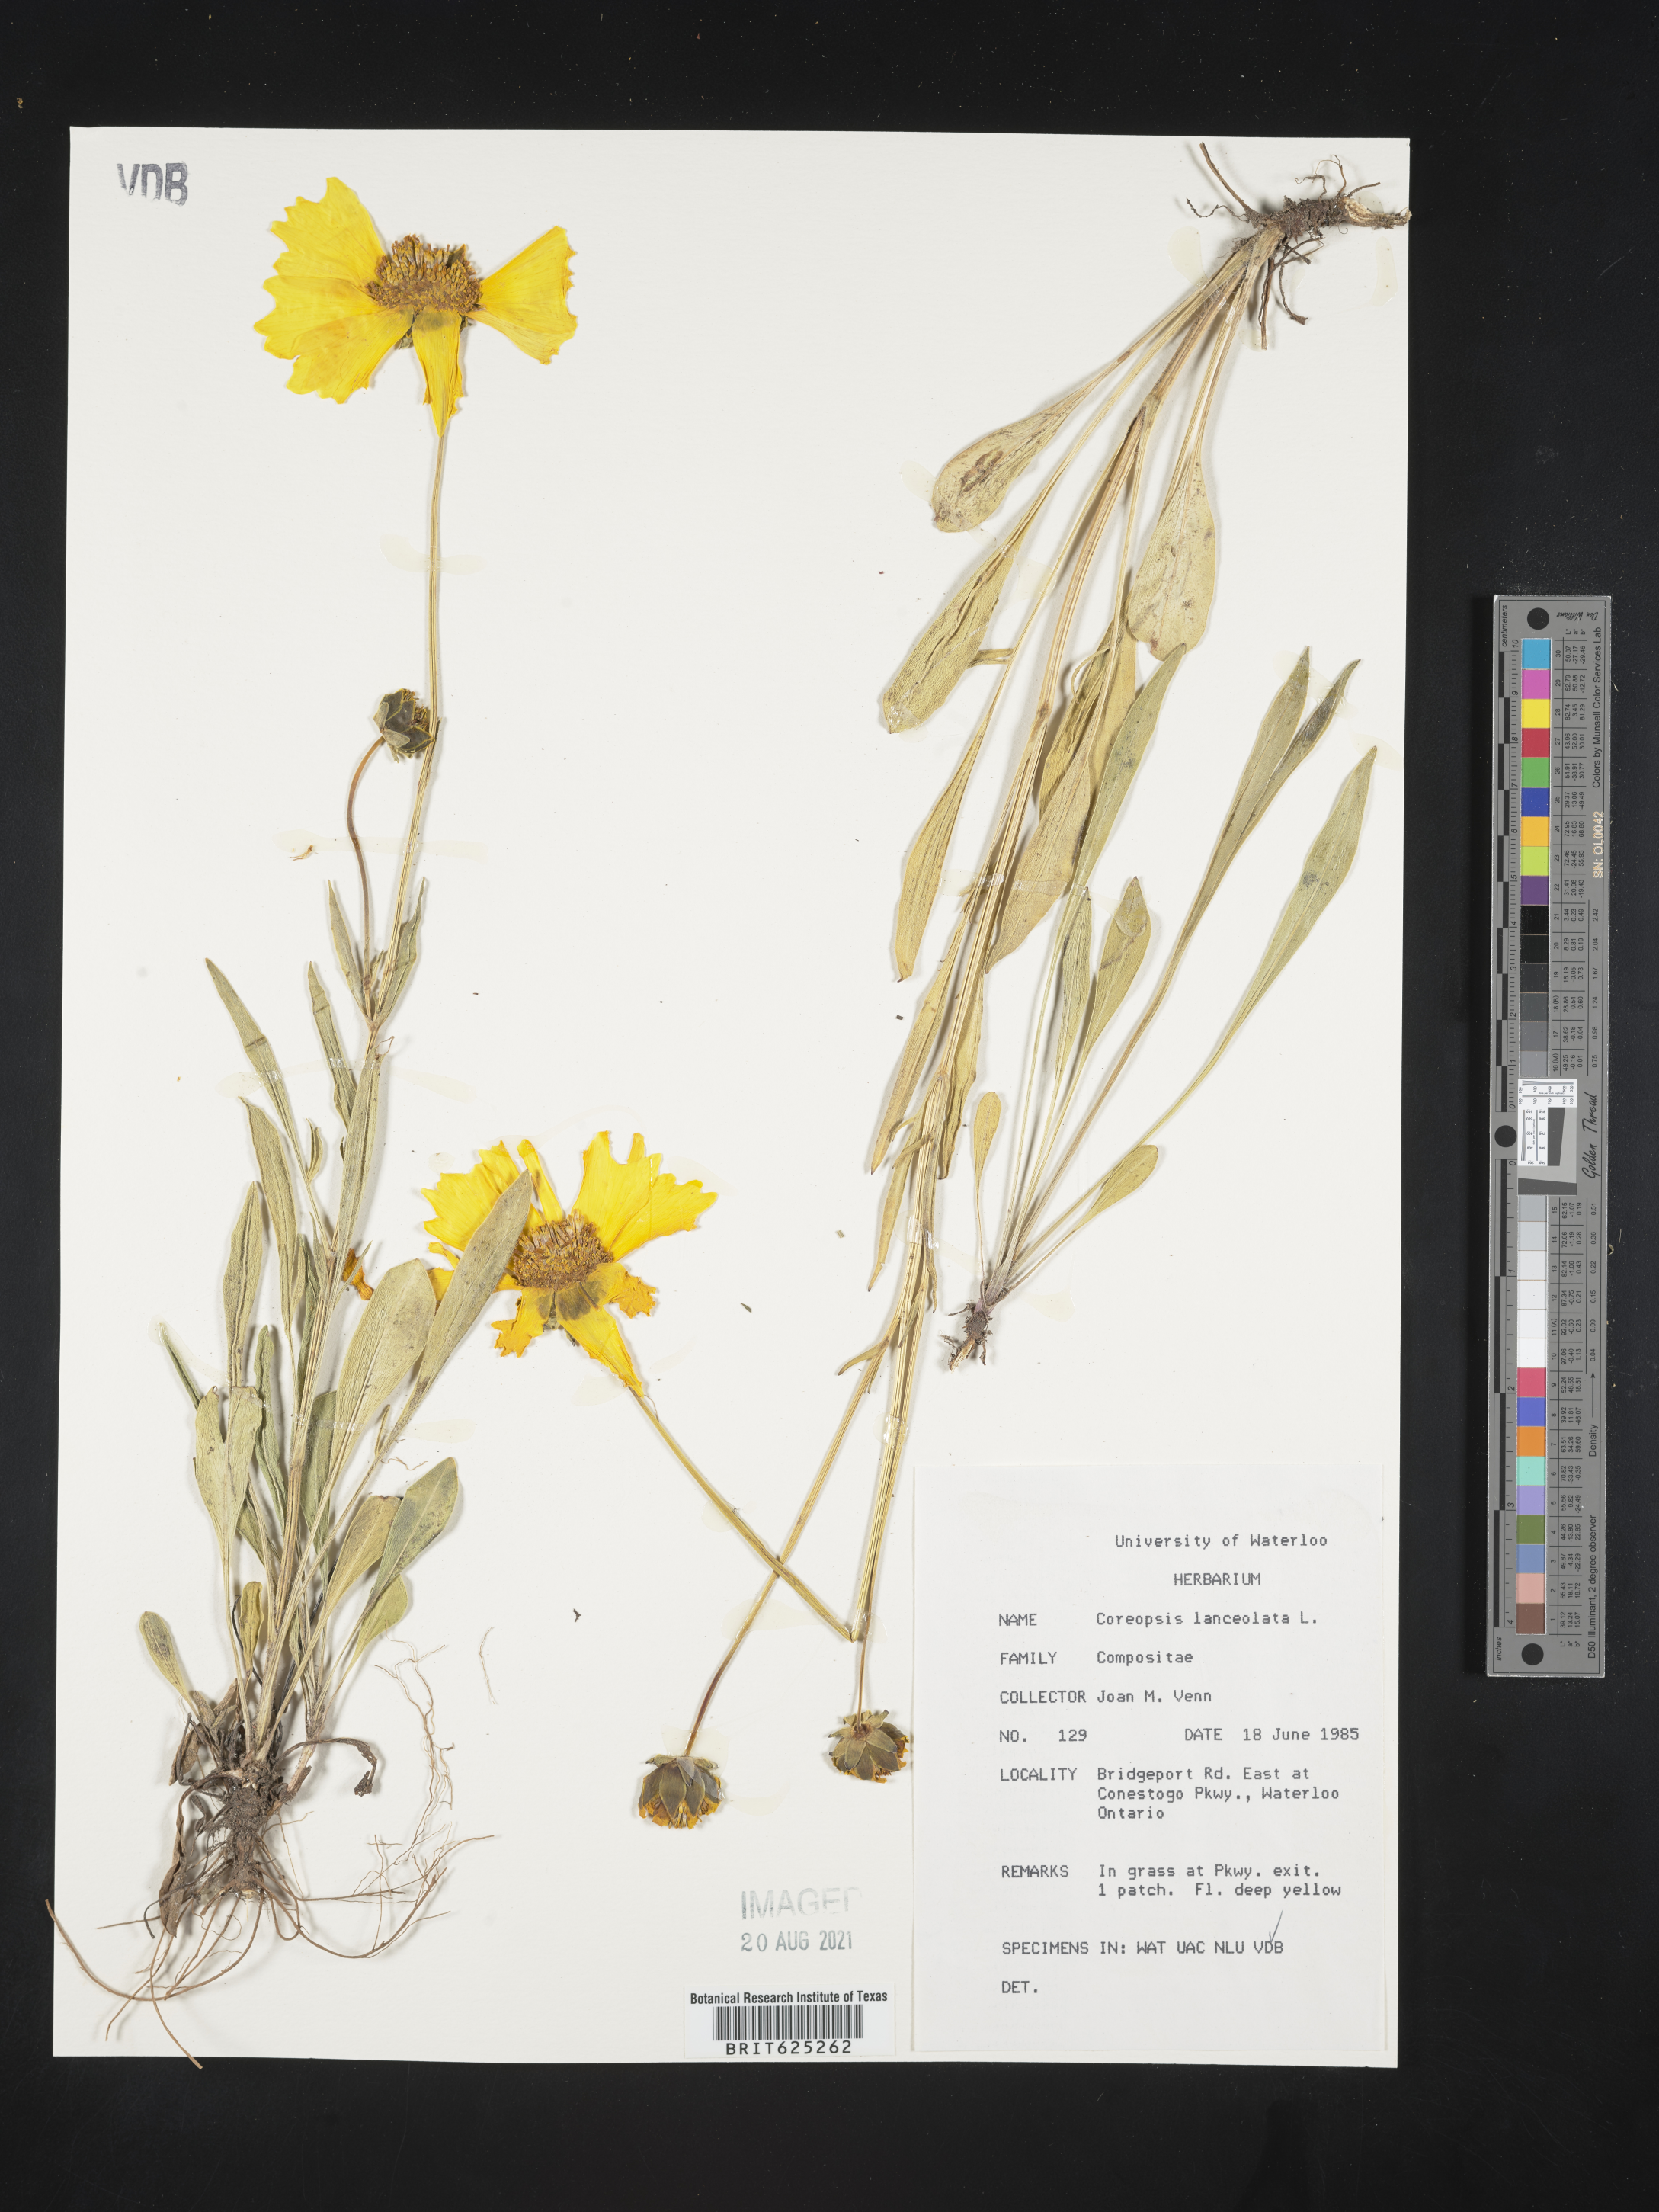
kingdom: Plantae
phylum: Tracheophyta
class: Magnoliopsida
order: Asterales
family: Asteraceae
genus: Coreopsis
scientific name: Coreopsis lanceolata
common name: Garden coreopsis
